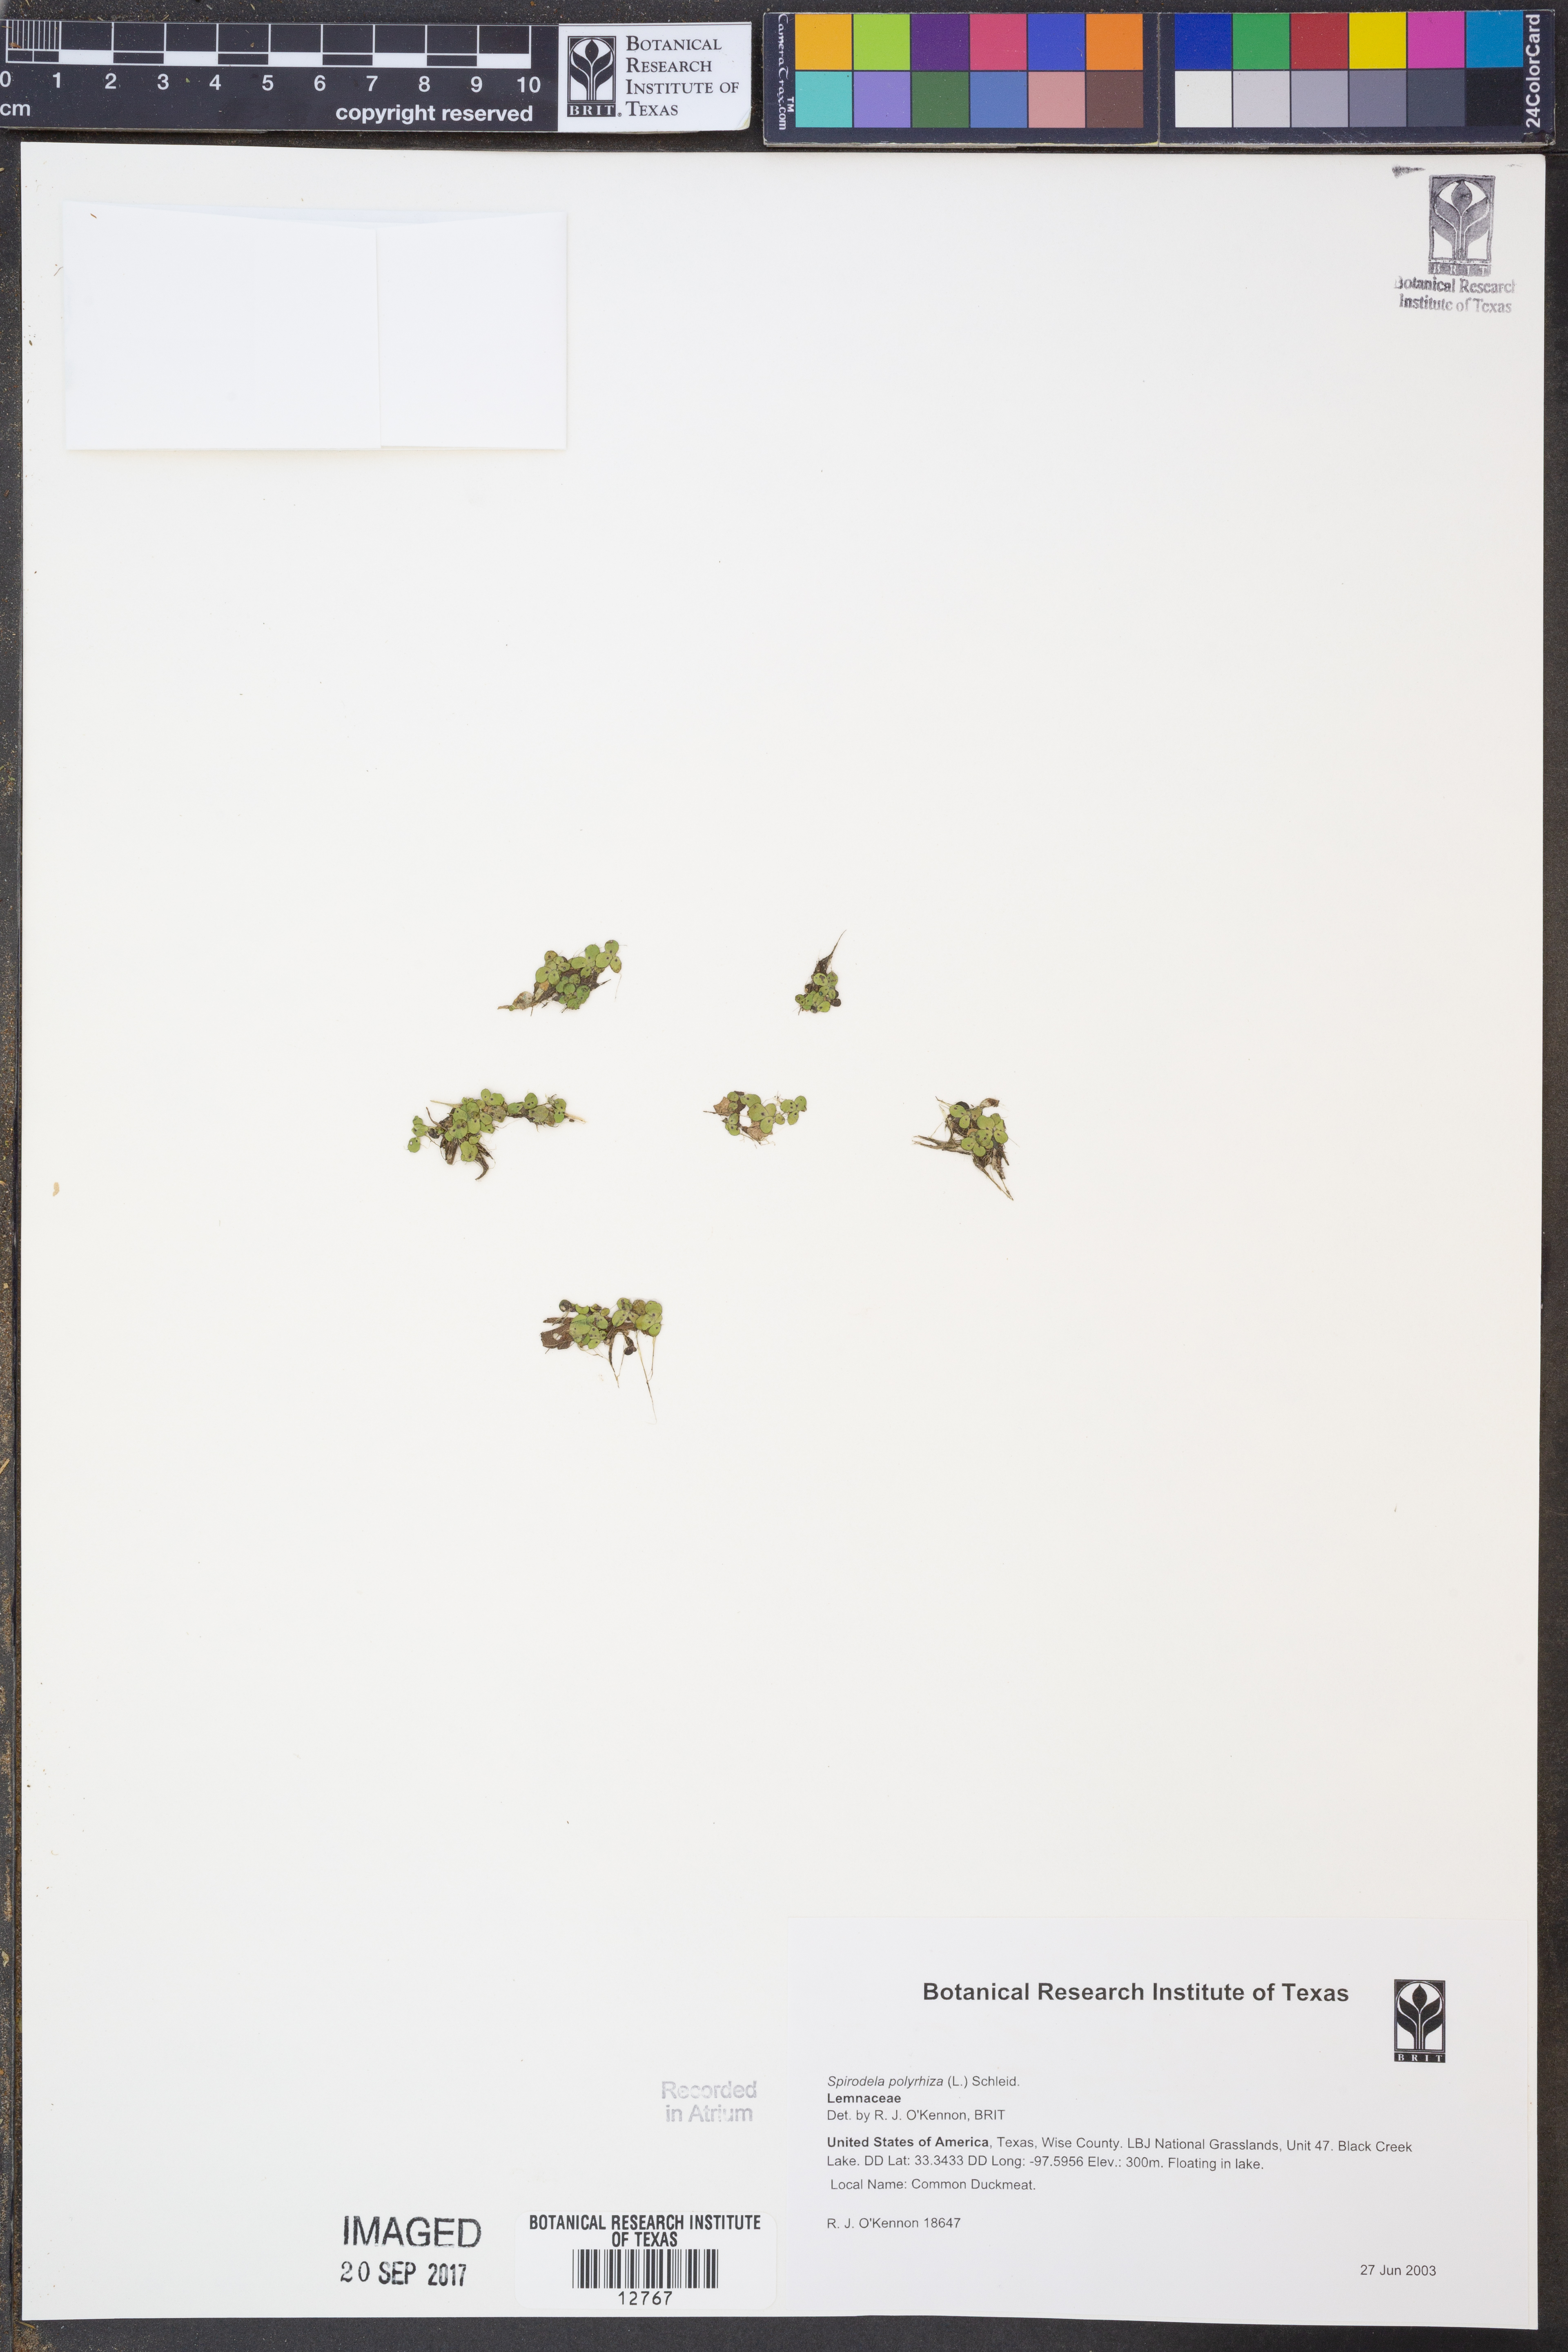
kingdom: Plantae
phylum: Tracheophyta
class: Liliopsida
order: Alismatales
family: Araceae
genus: Spirodela
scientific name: Spirodela polyrhiza
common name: Great duckweed
